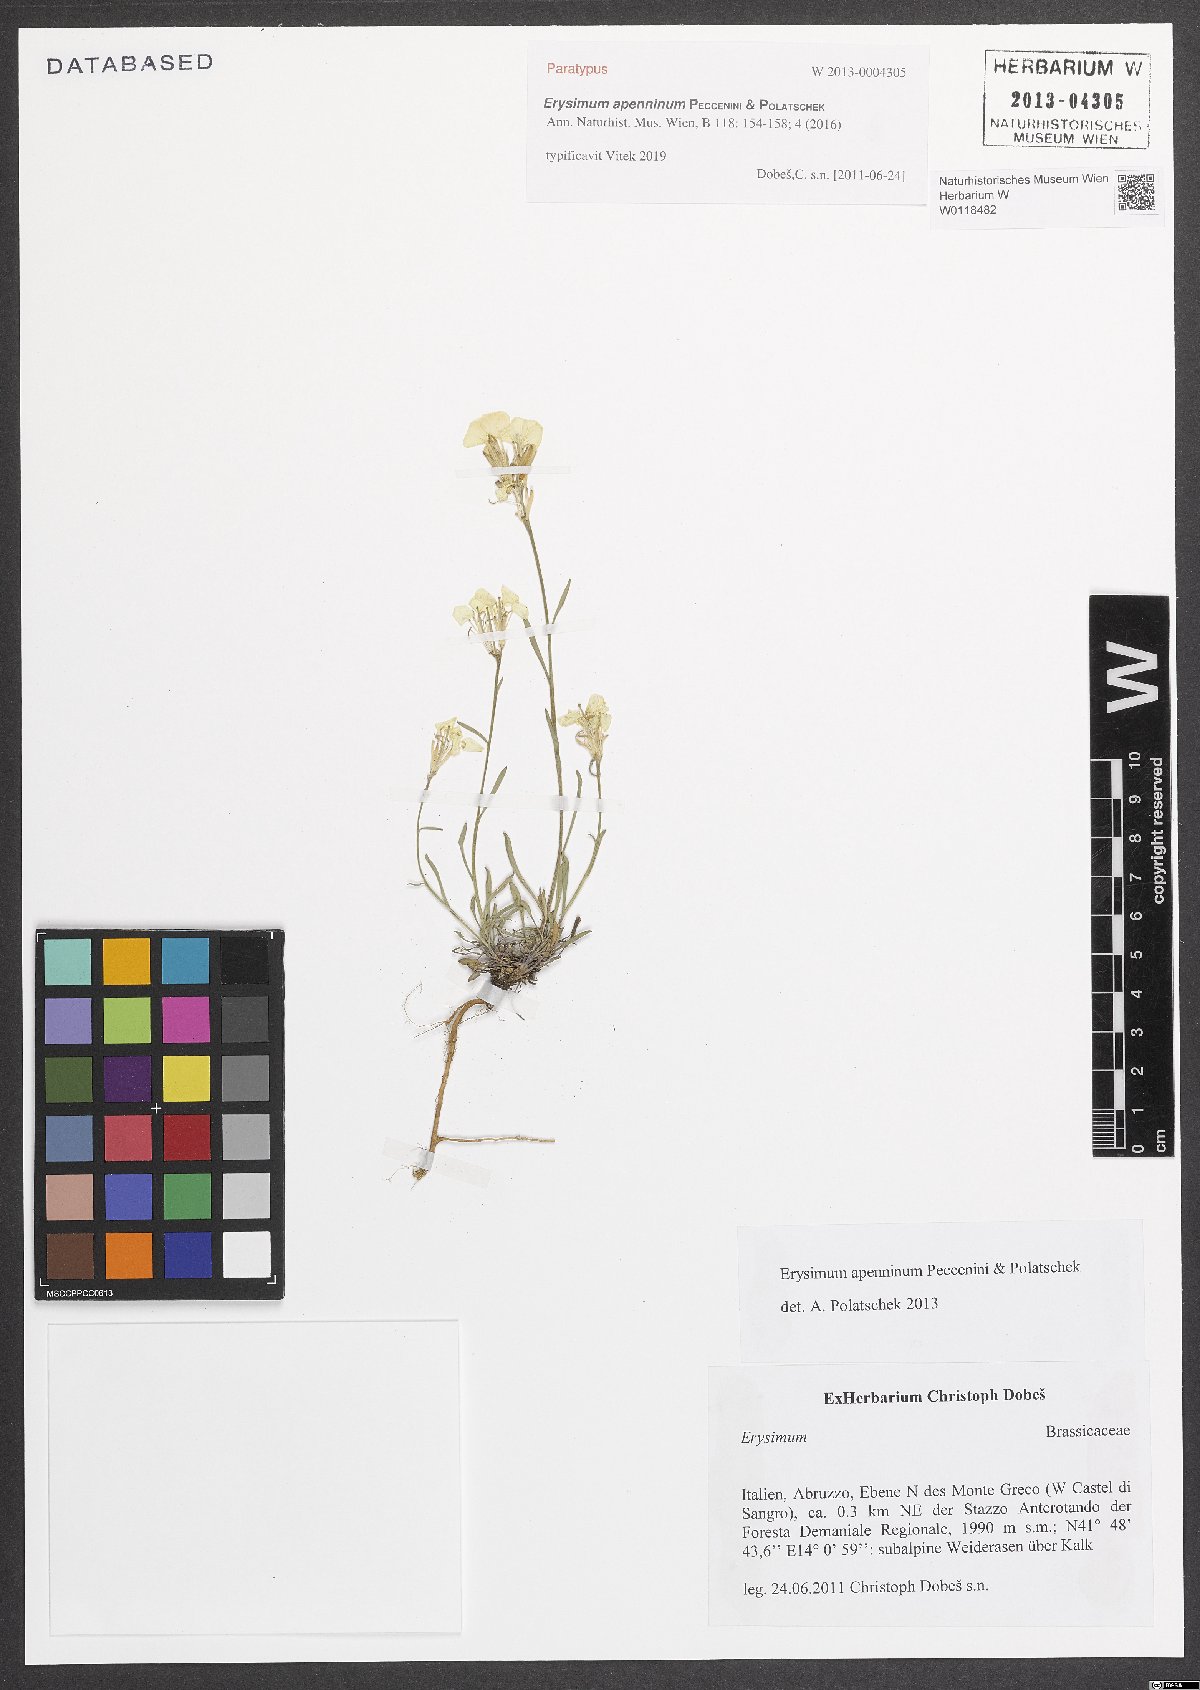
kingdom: Plantae
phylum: Tracheophyta
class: Magnoliopsida
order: Brassicales
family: Brassicaceae
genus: Erysimum
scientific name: Erysimum apenninum
